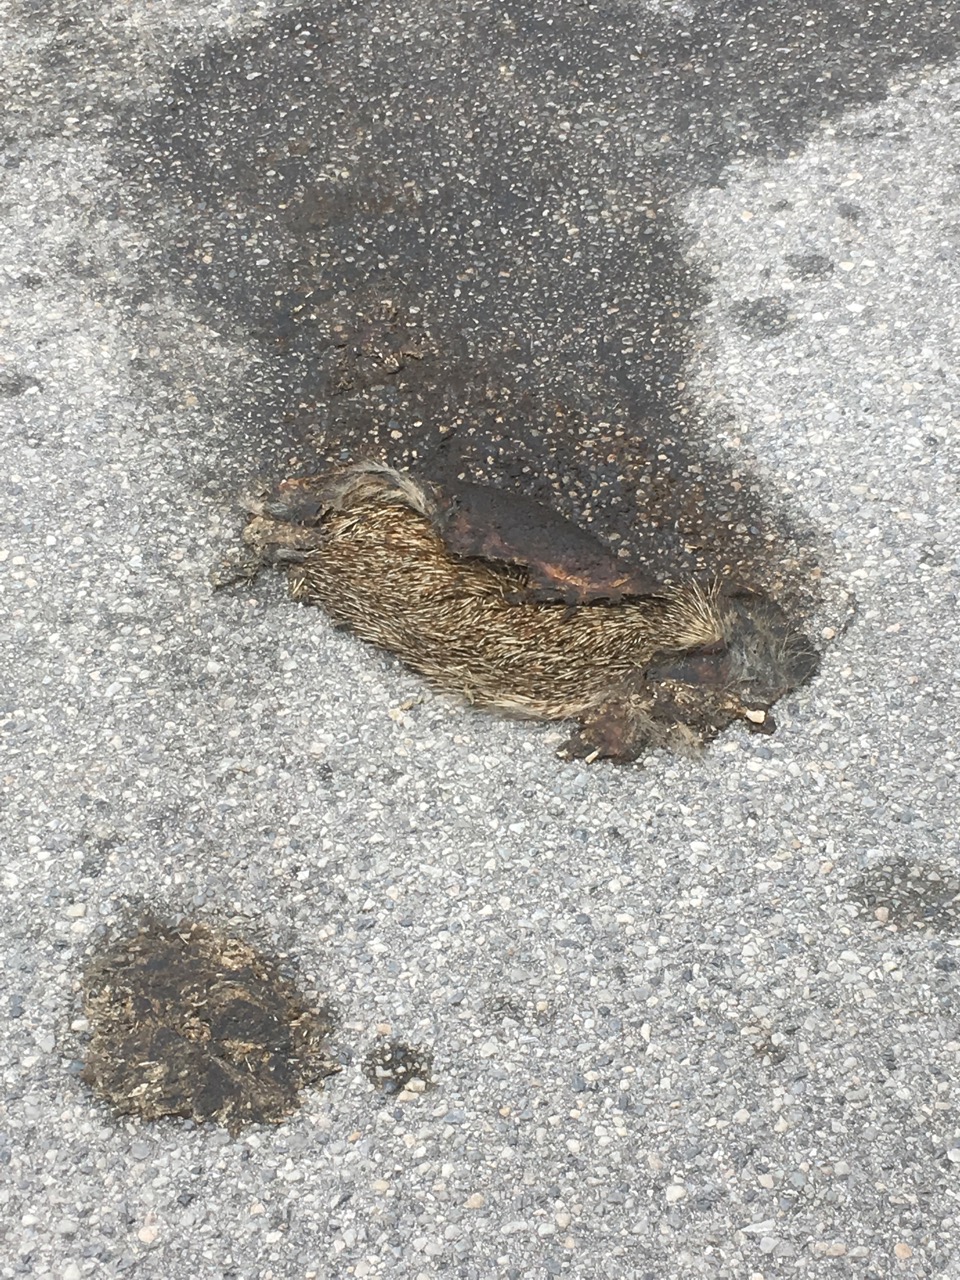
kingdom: Animalia
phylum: Chordata
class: Mammalia
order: Erinaceomorpha
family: Erinaceidae
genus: Erinaceus
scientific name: Erinaceus
